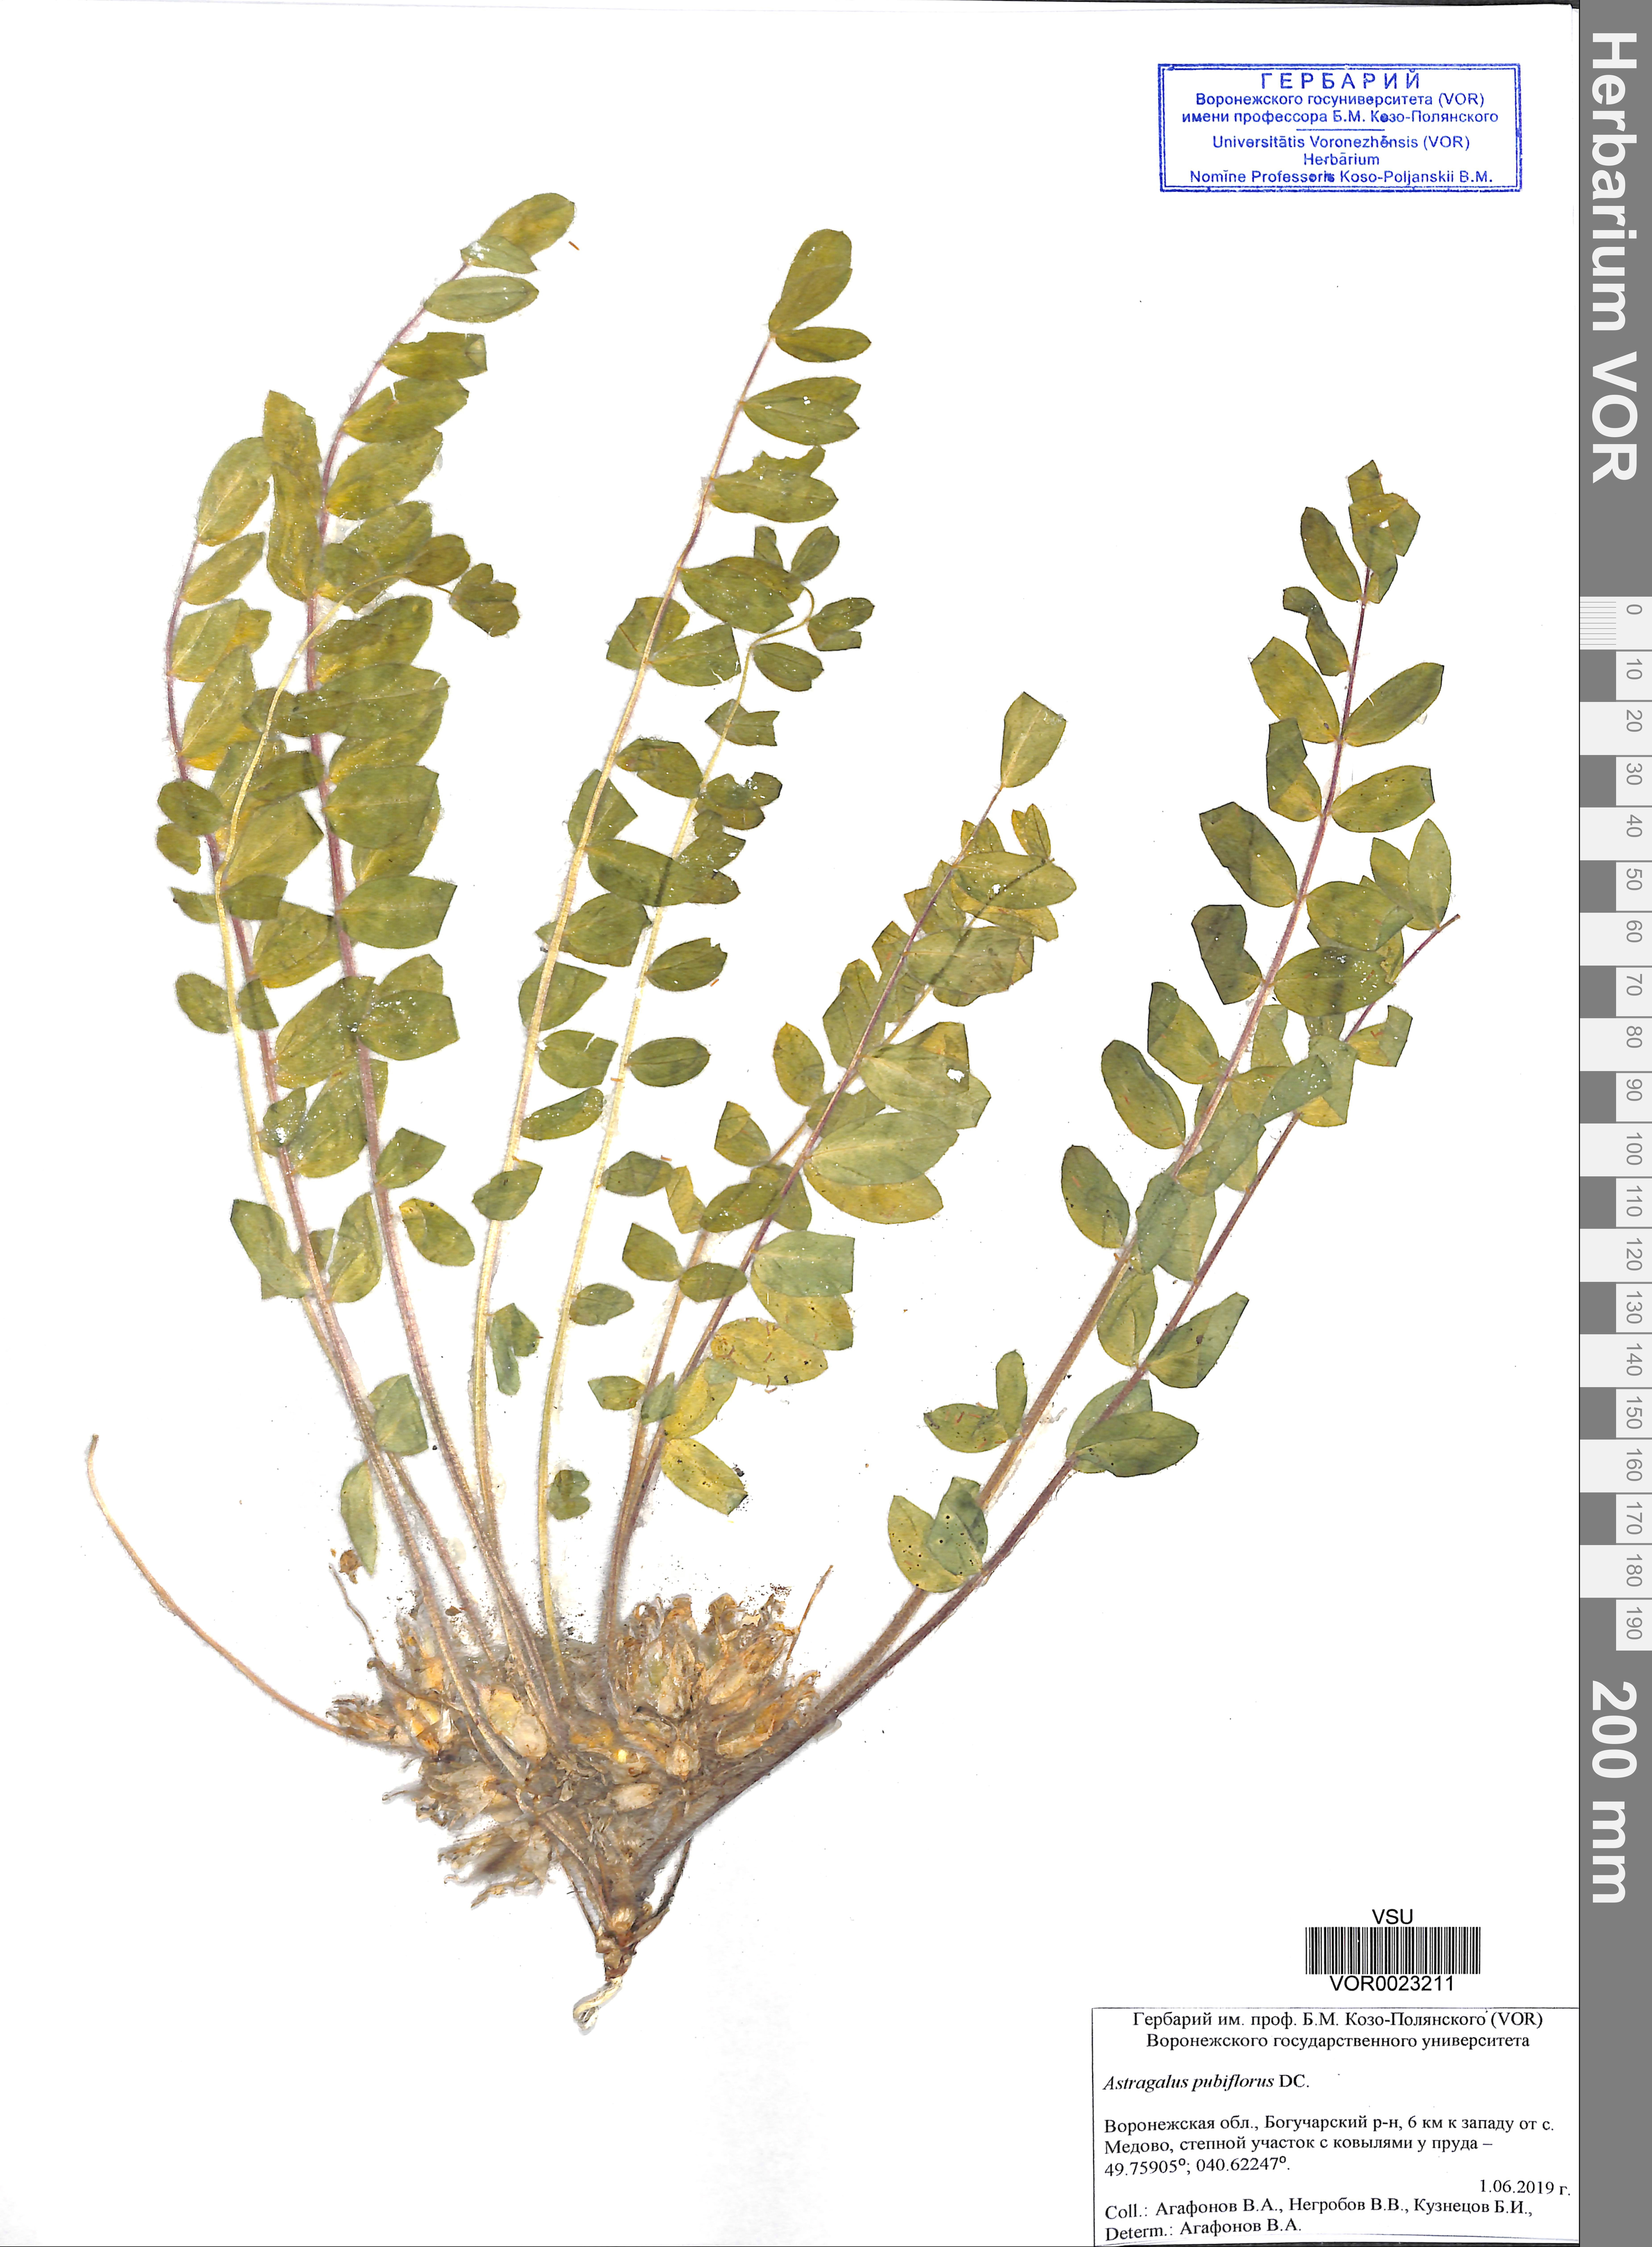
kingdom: Plantae
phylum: Tracheophyta
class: Magnoliopsida
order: Fabales
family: Fabaceae
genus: Astragalus
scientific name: Astragalus exscapus
